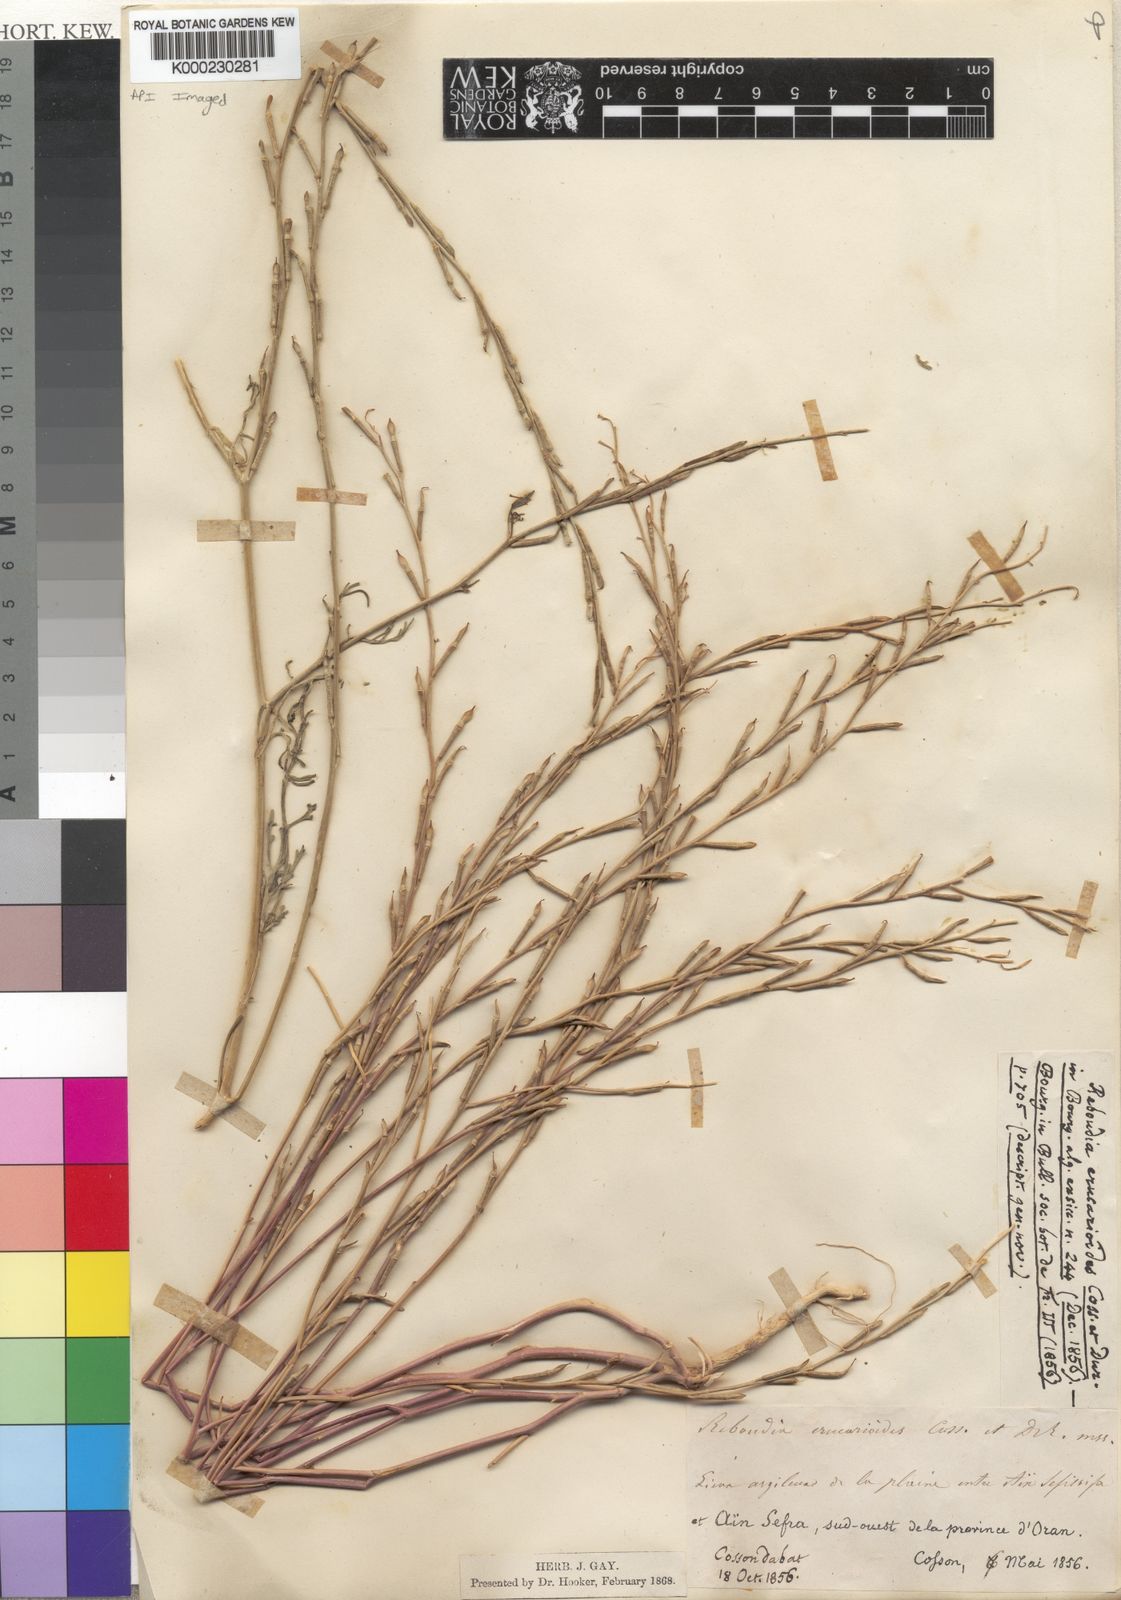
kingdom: Plantae
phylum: Tracheophyta
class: Magnoliopsida
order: Brassicales
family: Brassicaceae
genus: Erucaria
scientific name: Erucaria erucarioides
